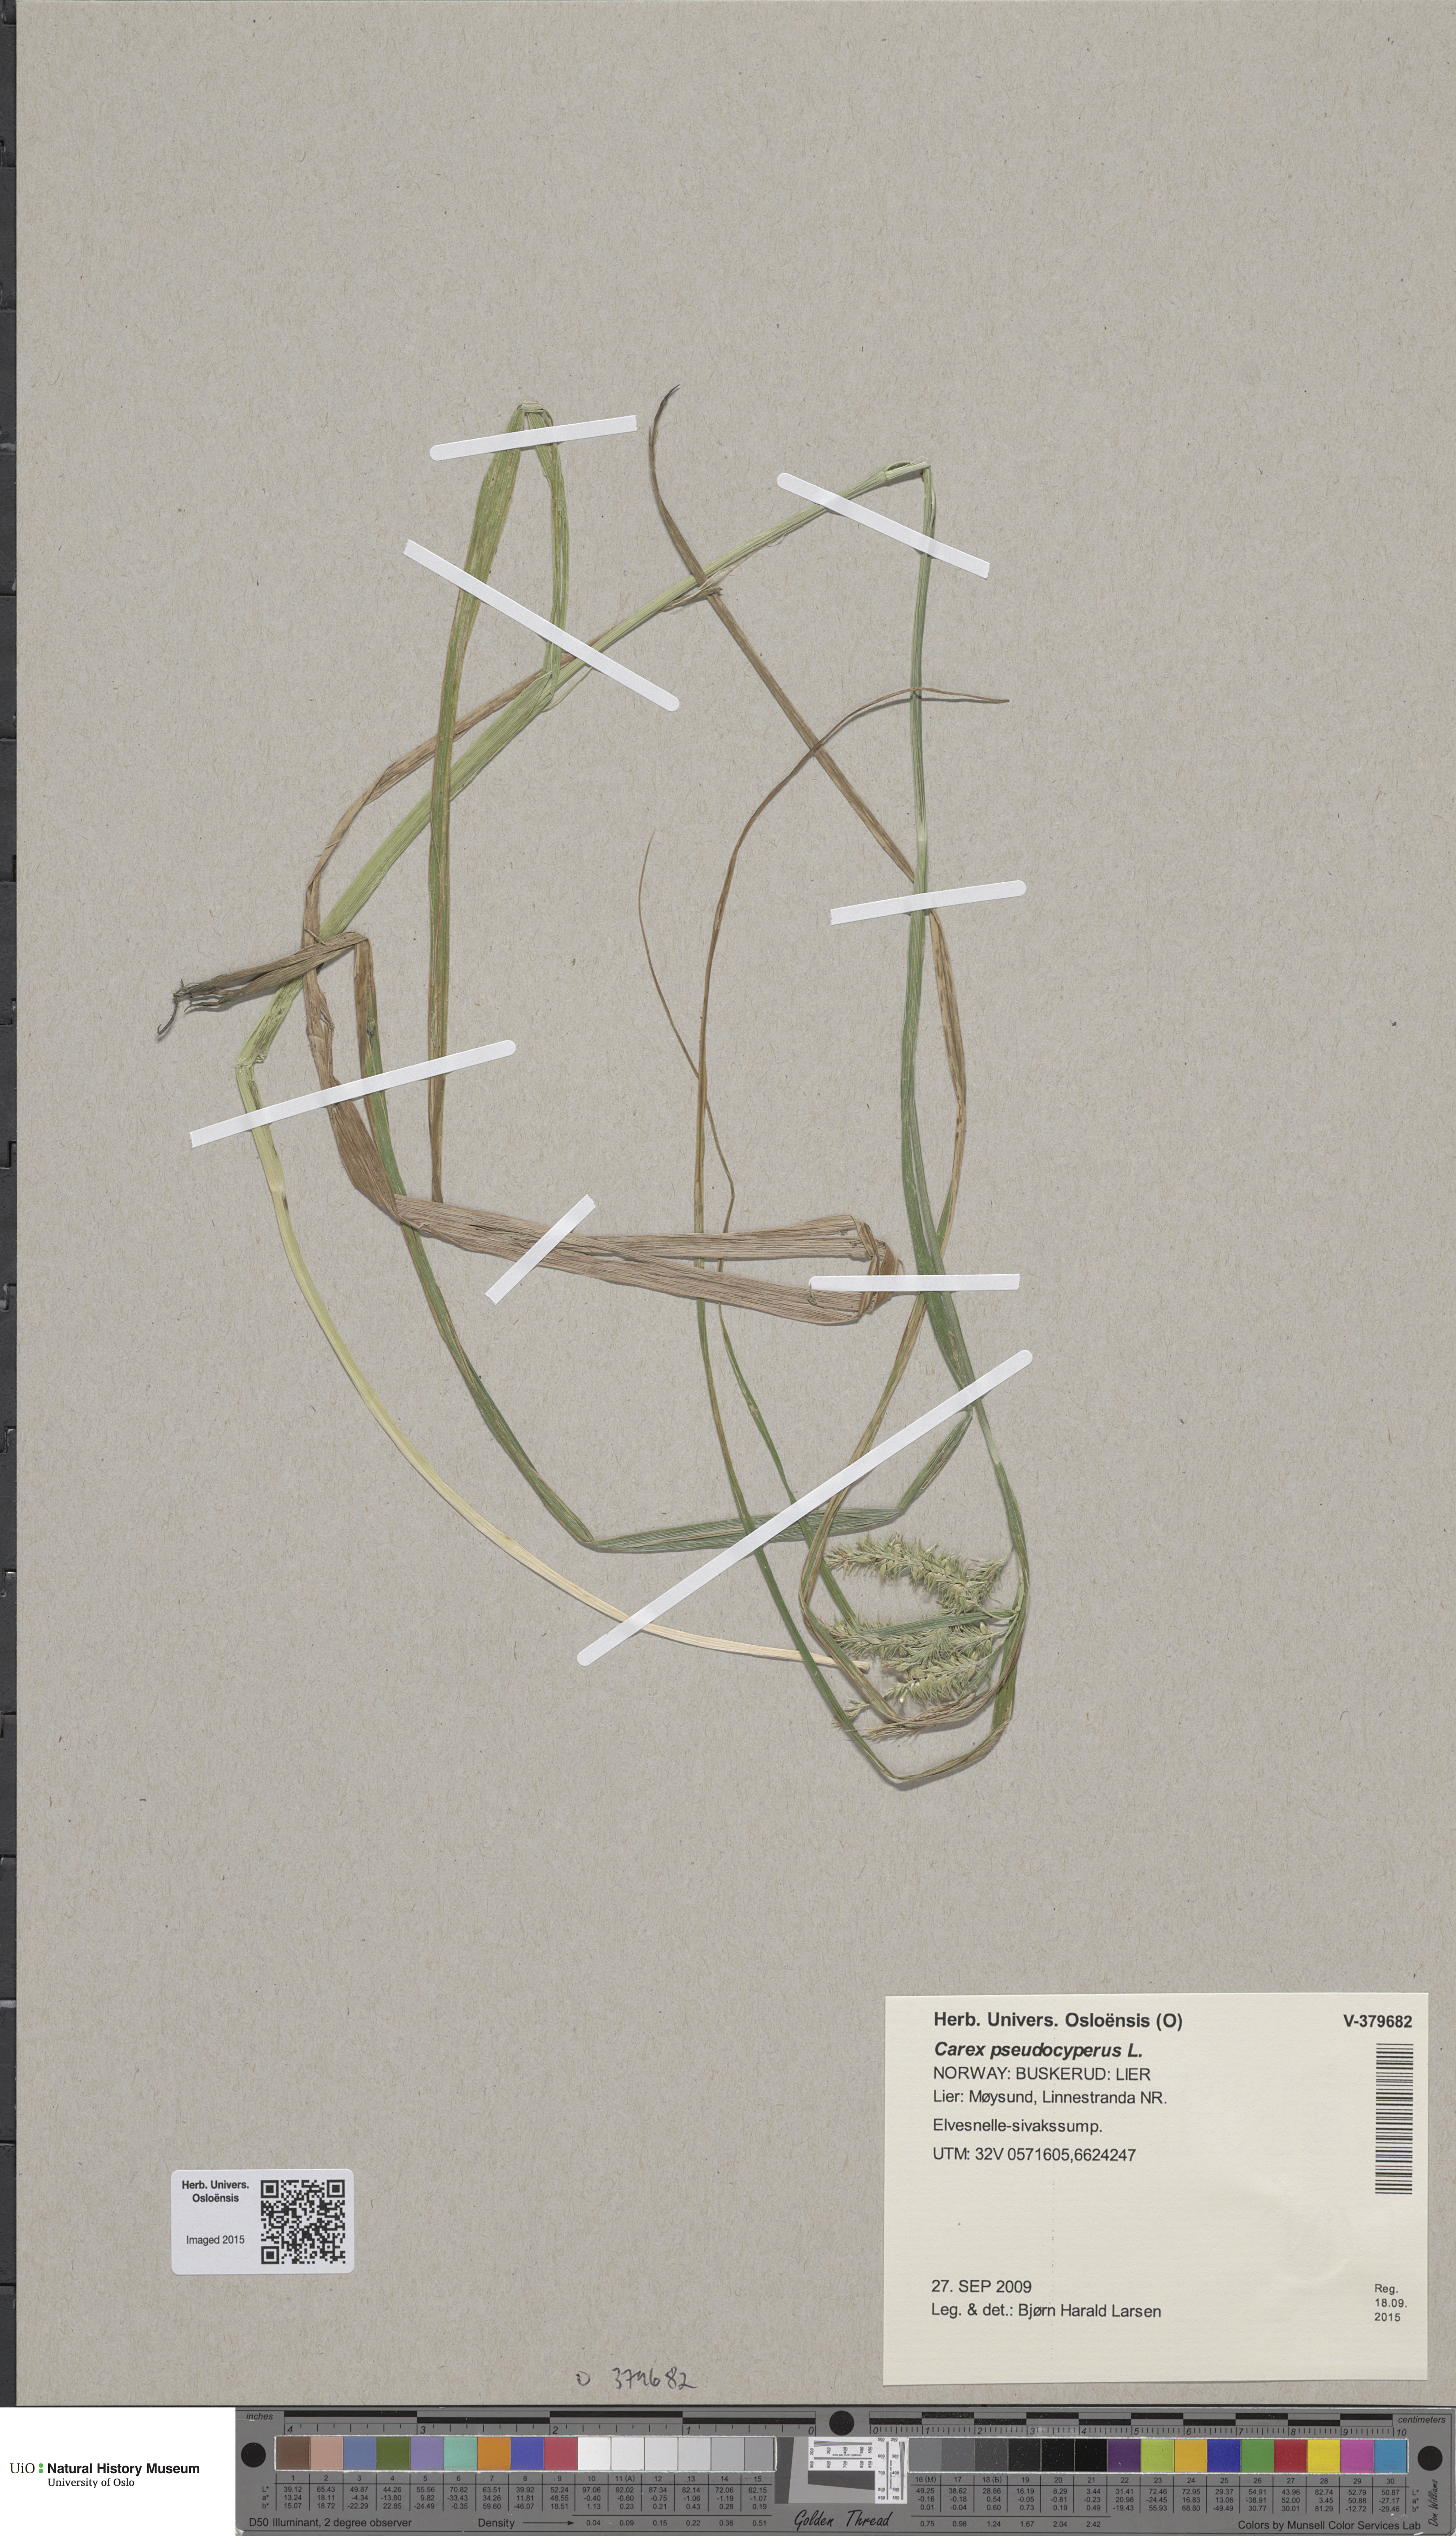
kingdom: Plantae
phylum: Tracheophyta
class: Liliopsida
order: Poales
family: Cyperaceae
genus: Carex
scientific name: Carex pseudocyperus
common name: Cyperus sedge
